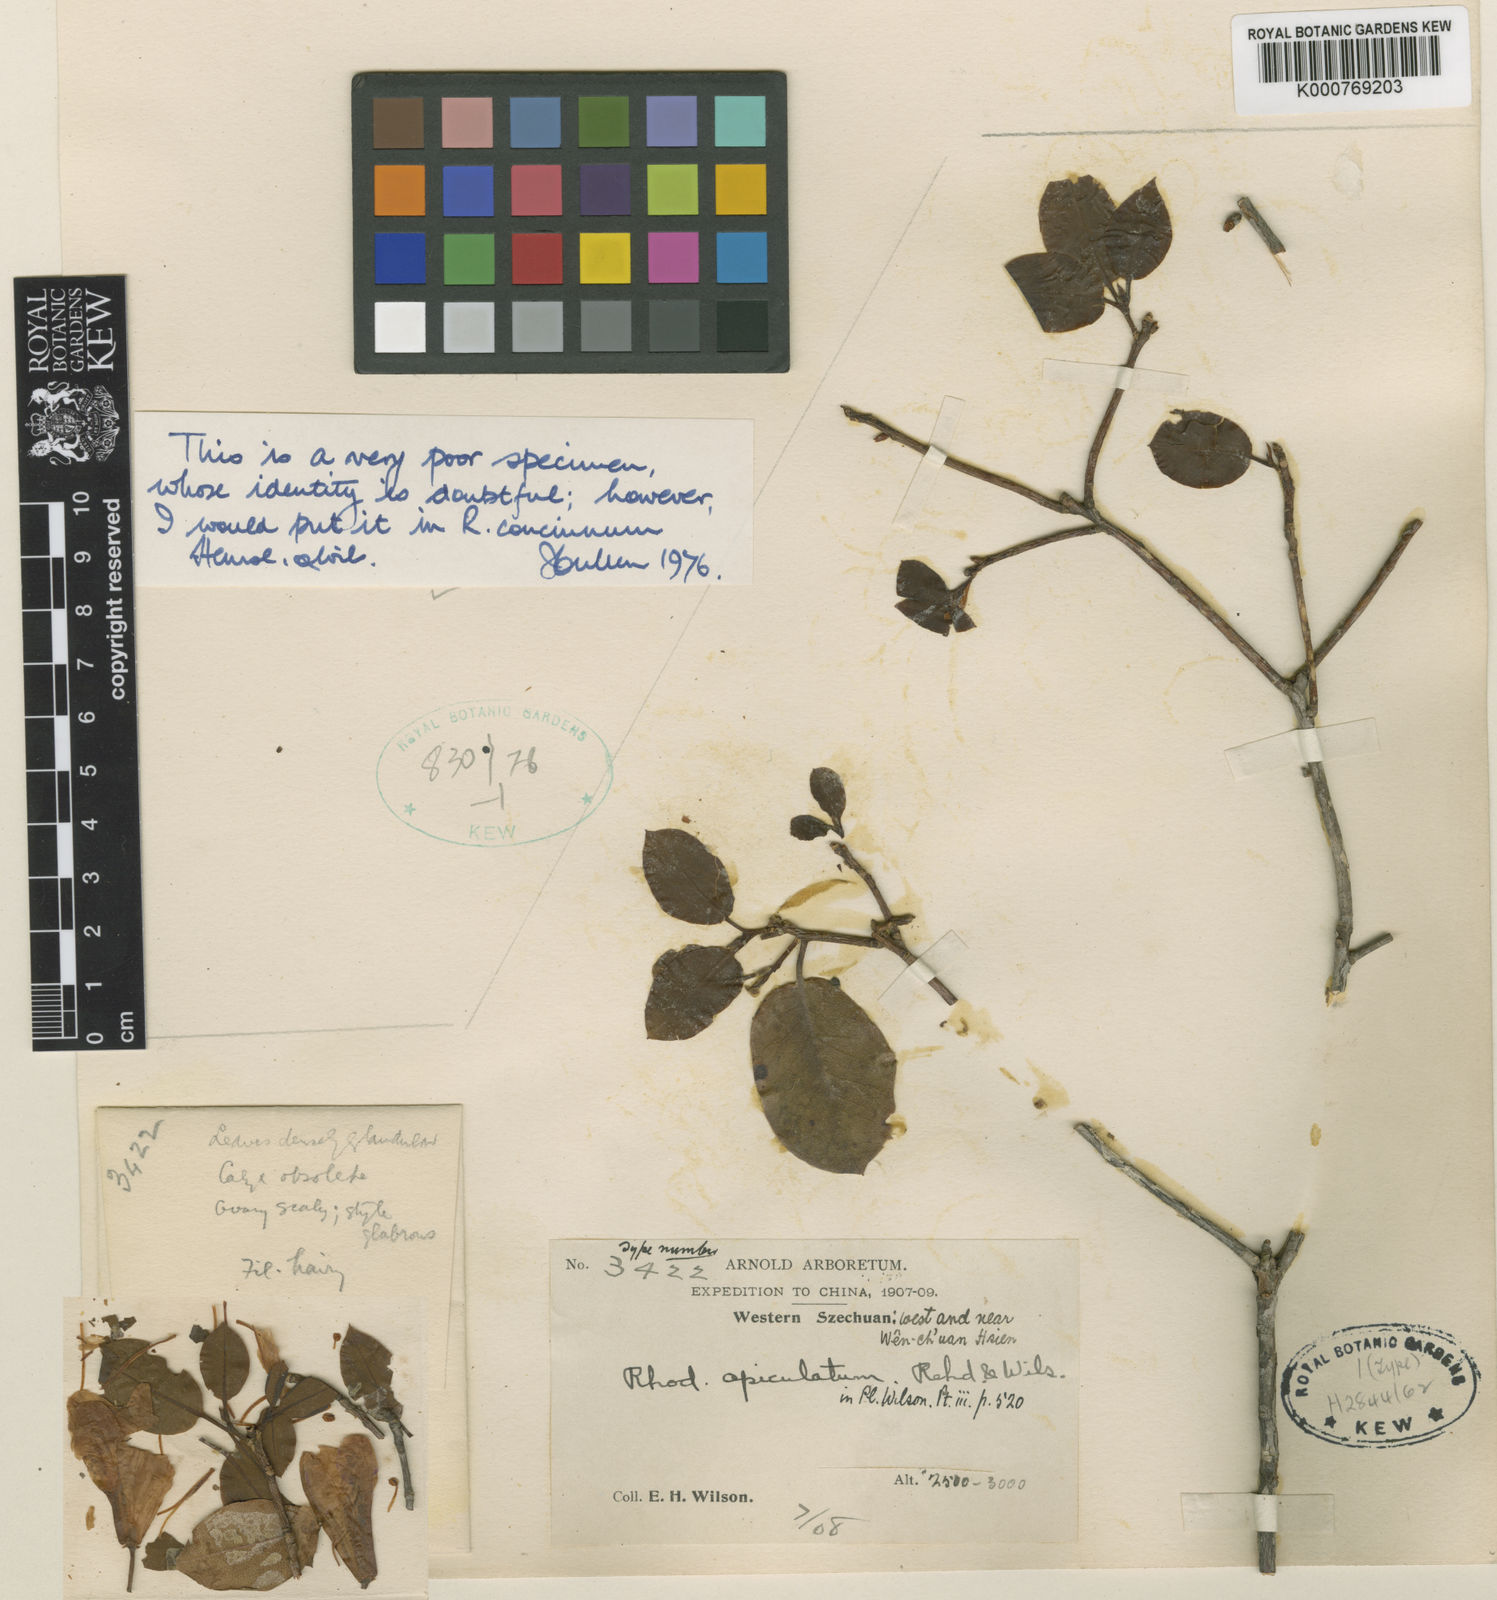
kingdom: Plantae
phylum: Tracheophyta
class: Magnoliopsida
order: Ericales
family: Ericaceae
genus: Rhododendron
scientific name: Rhododendron concinnum
